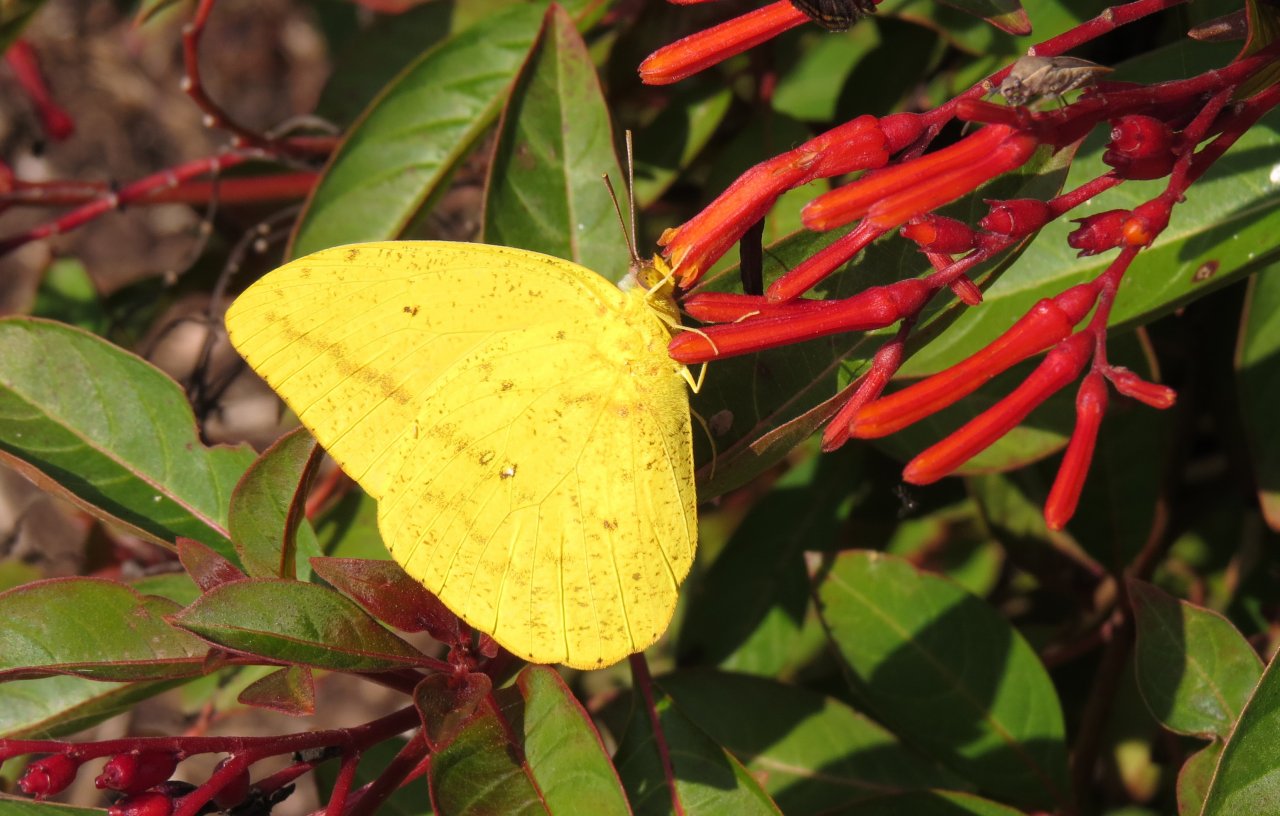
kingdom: Animalia
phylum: Arthropoda
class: Insecta
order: Lepidoptera
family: Pieridae
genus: Phoebis
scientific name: Phoebis agarithe
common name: Large Orange Sulphur
